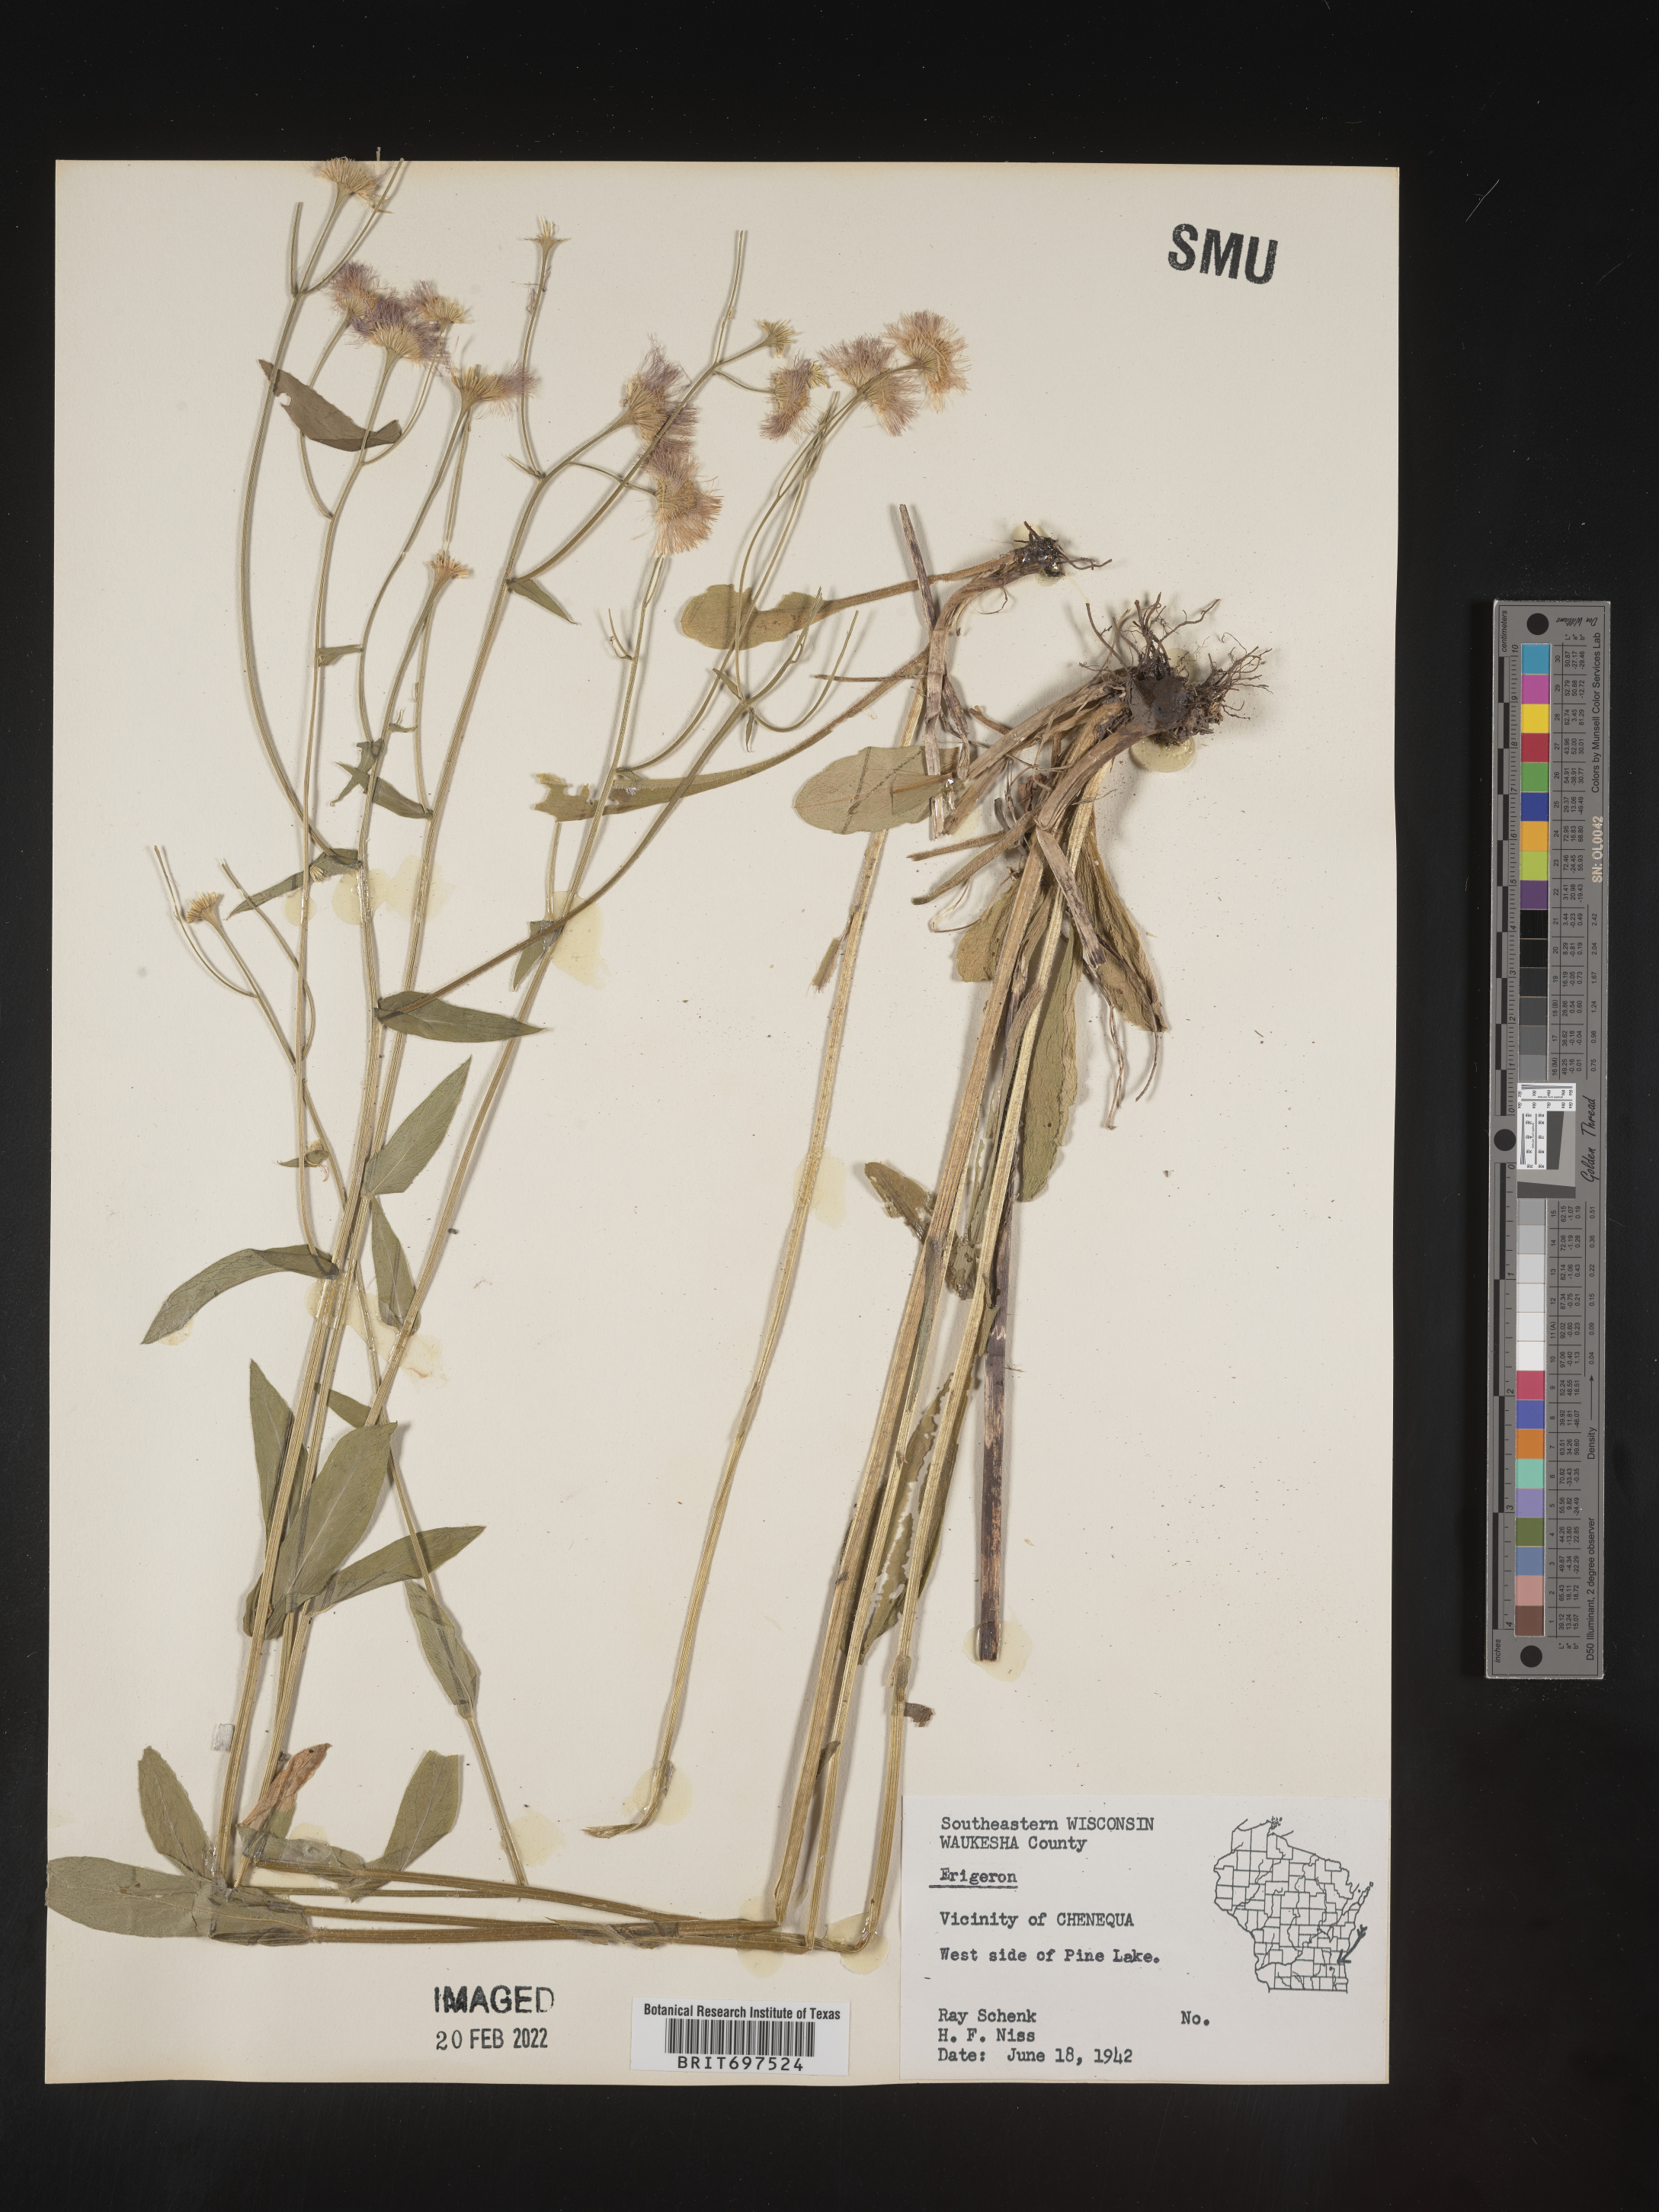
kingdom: Plantae
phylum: Tracheophyta
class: Magnoliopsida
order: Asterales
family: Asteraceae
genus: Erigeron
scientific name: Erigeron philadelphicus
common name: Robin's-plantain
